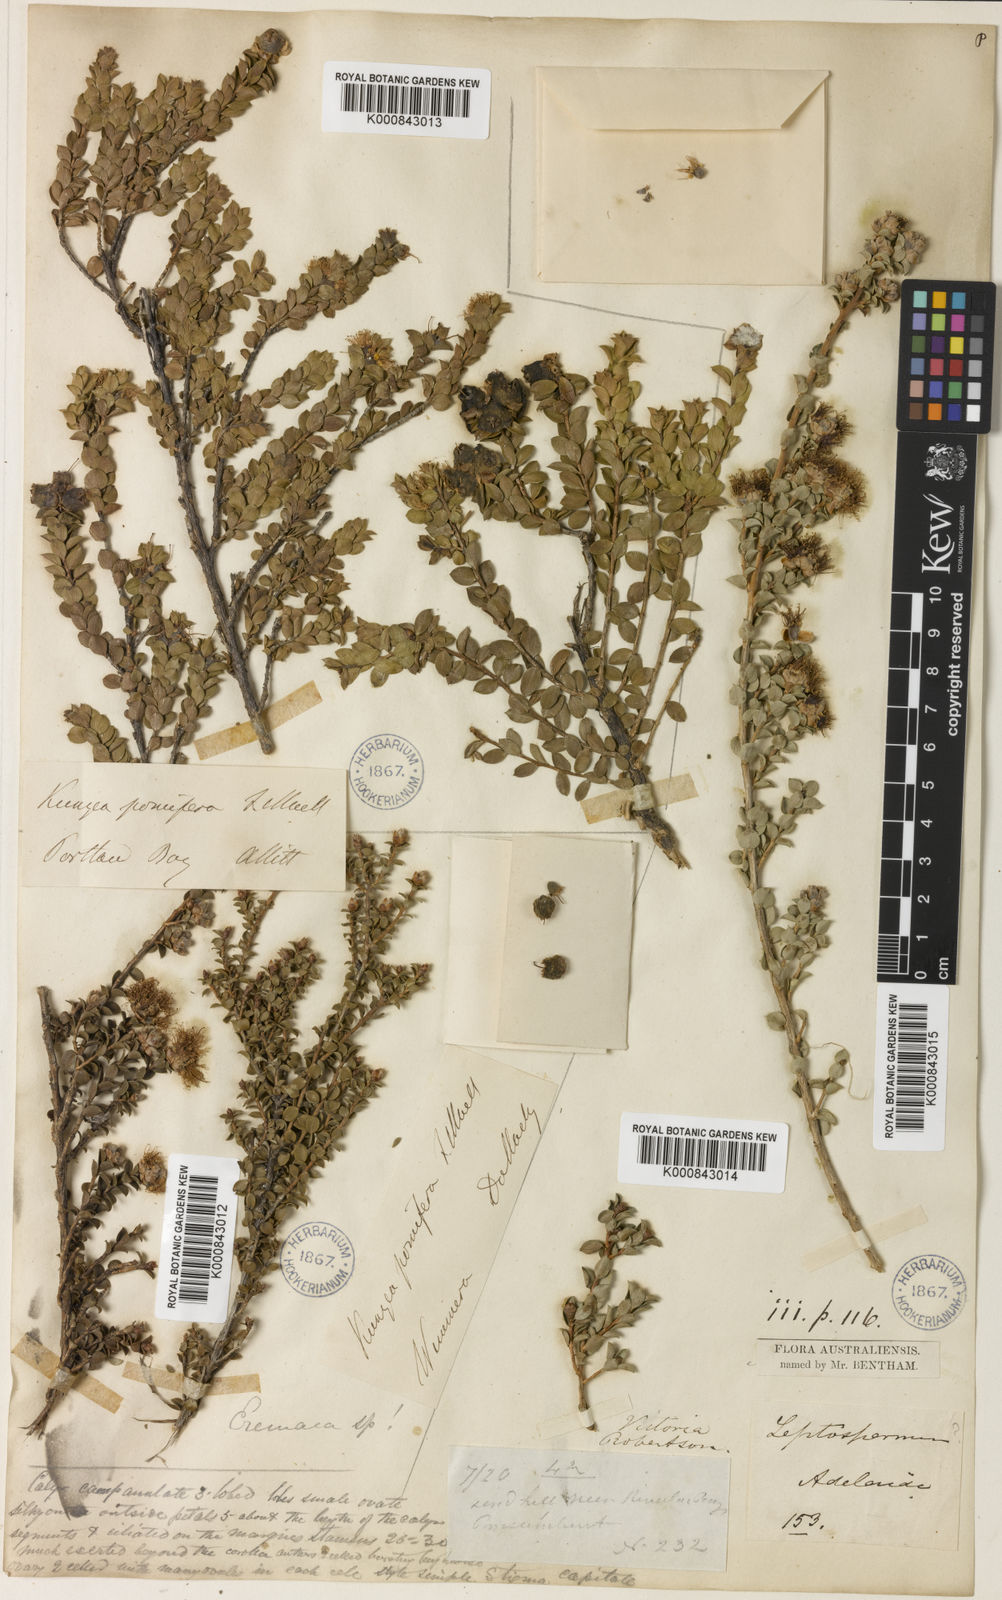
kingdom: Plantae
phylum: Tracheophyta
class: Magnoliopsida
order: Myrtales
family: Myrtaceae
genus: Kunzea
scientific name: Kunzea pomifera
